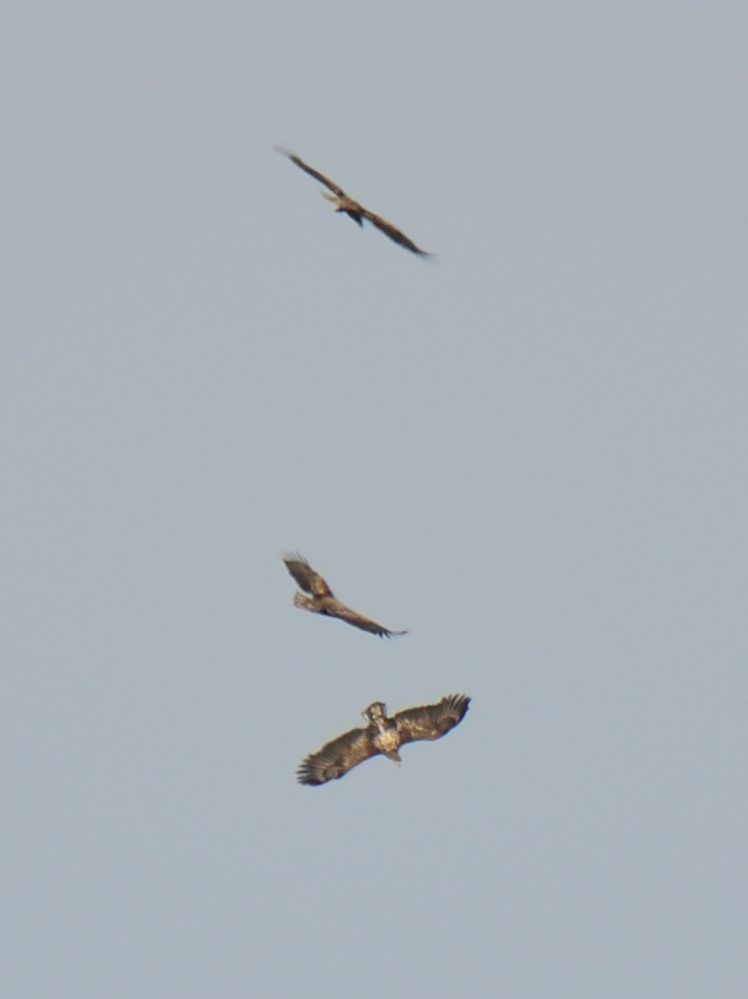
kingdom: Animalia
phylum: Chordata
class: Aves
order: Accipitriformes
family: Accipitridae
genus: Haliaeetus
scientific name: Haliaeetus albicilla
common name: White-tailed eagle
